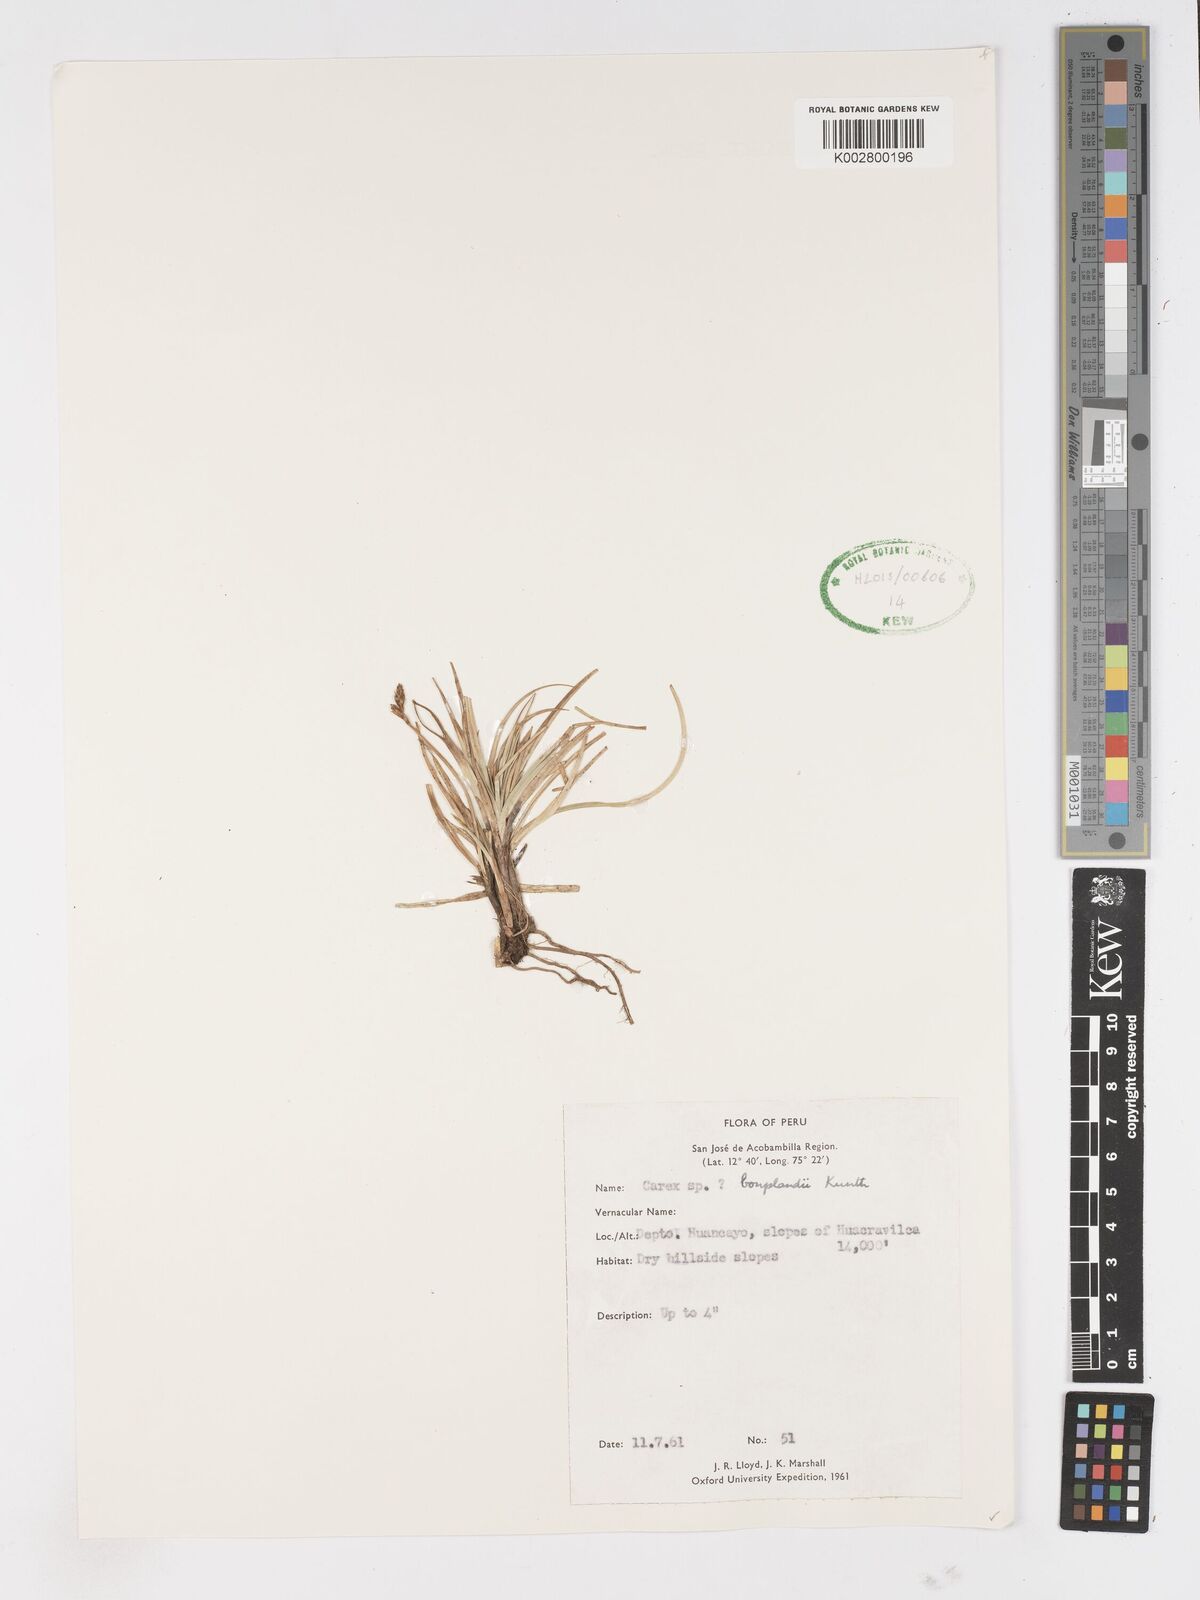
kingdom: Plantae
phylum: Tracheophyta
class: Liliopsida
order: Poales
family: Cyperaceae
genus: Carex
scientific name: Carex bonplandii
